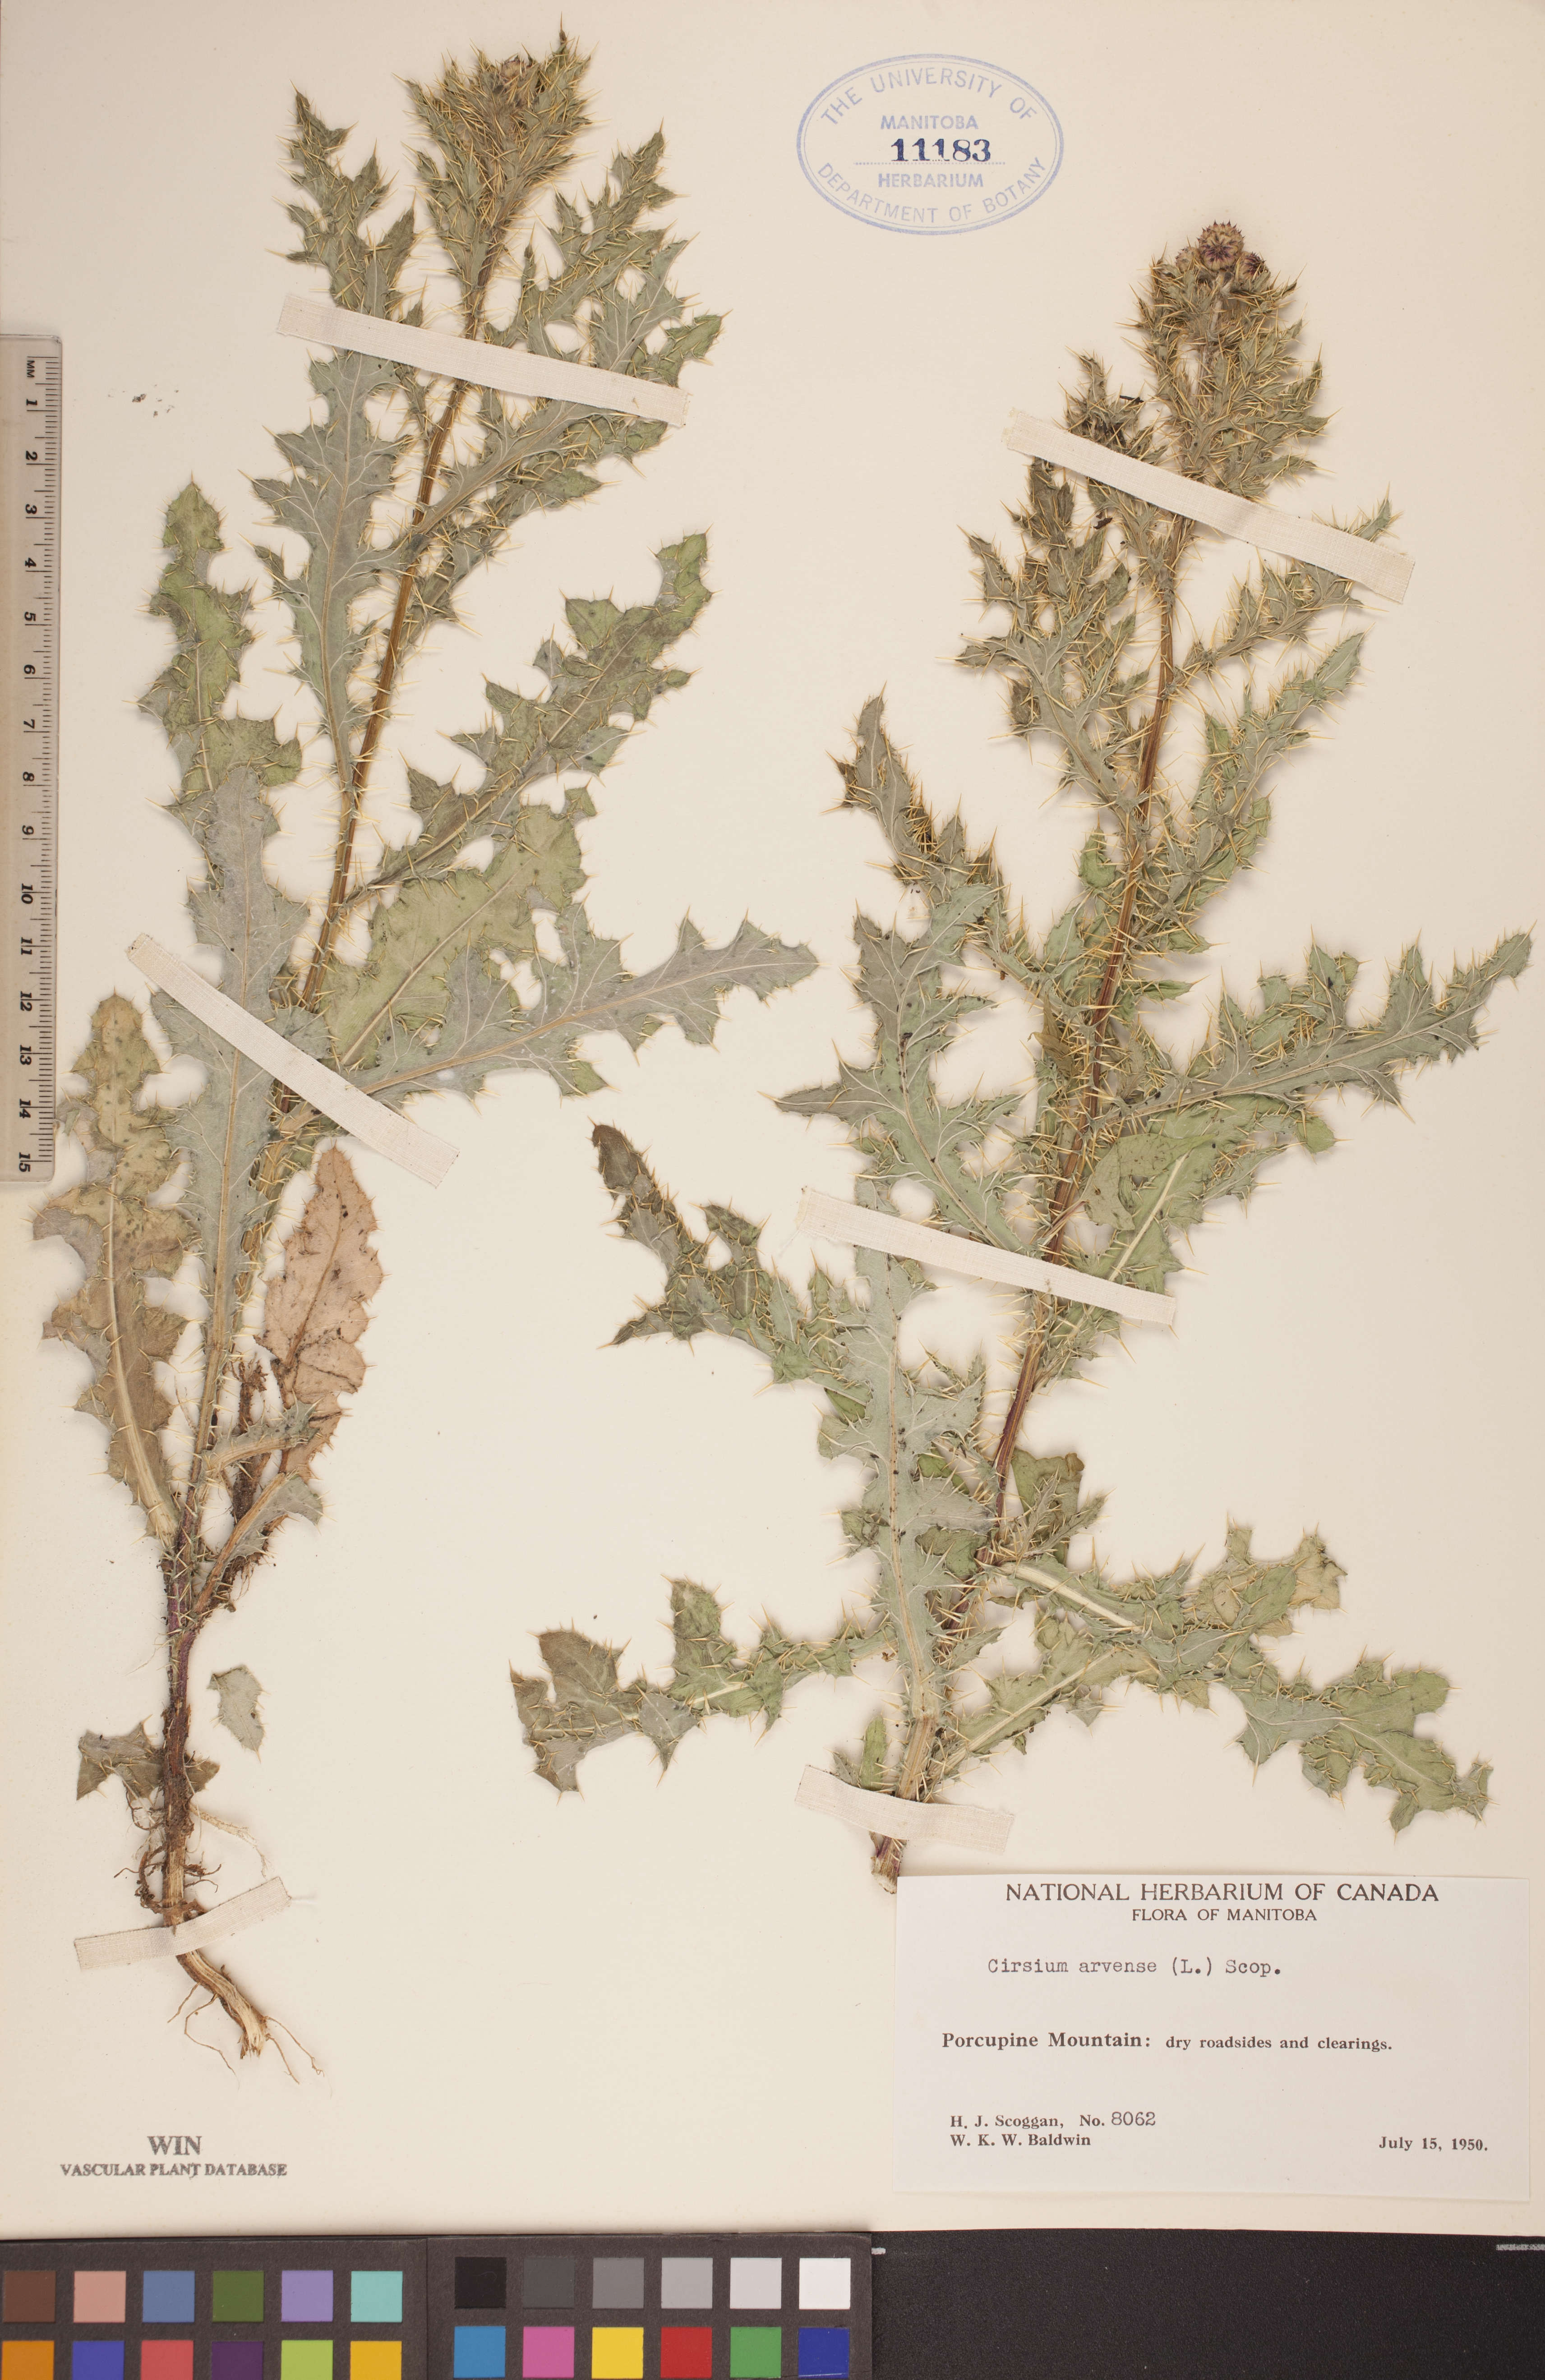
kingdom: Plantae
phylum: Tracheophyta
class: Magnoliopsida
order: Asterales
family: Asteraceae
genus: Cirsium
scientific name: Cirsium arvense
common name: Creeping thistle
